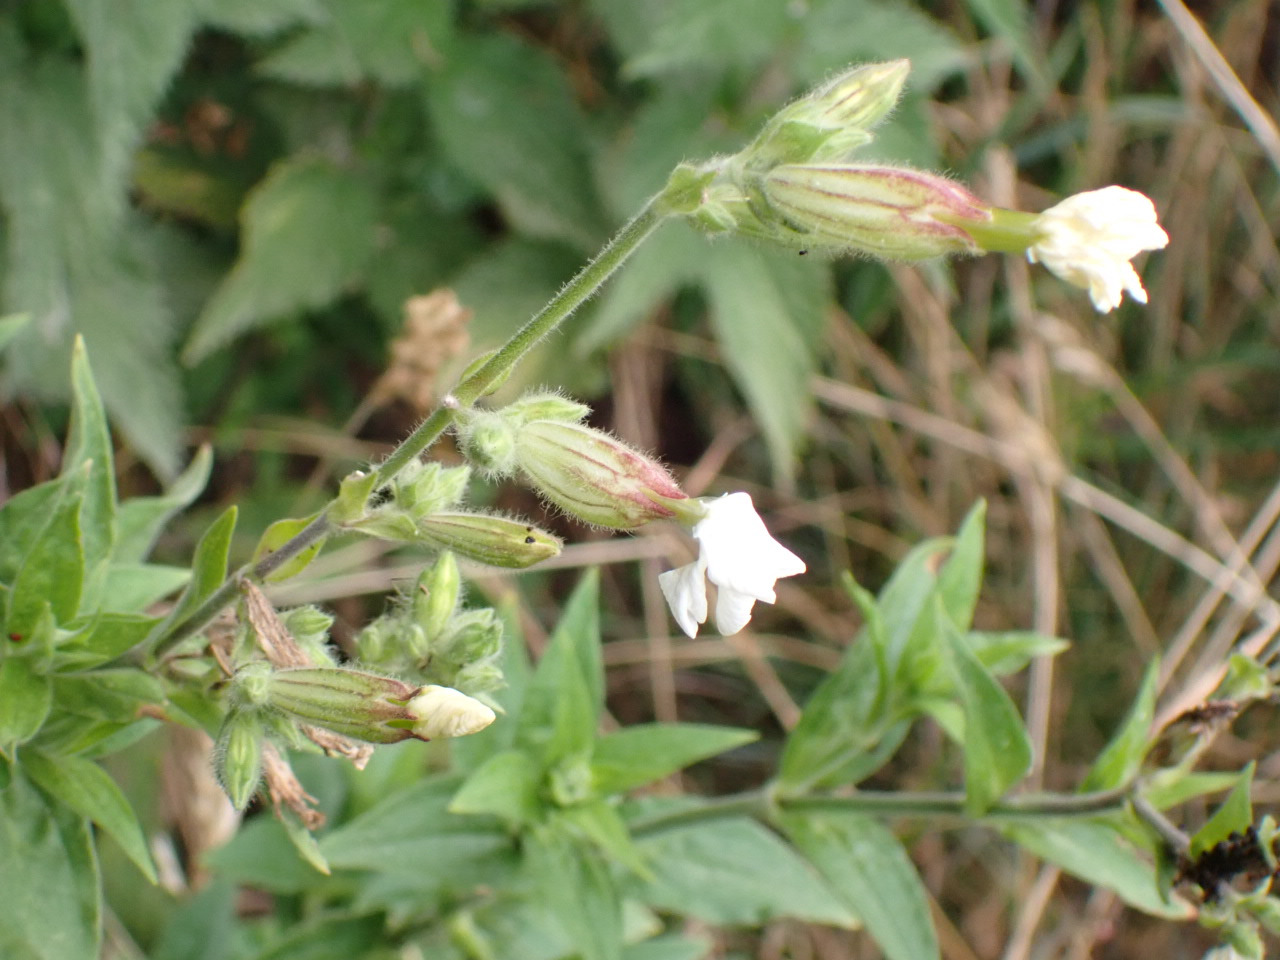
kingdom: Plantae
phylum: Tracheophyta
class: Magnoliopsida
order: Caryophyllales
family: Caryophyllaceae
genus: Silene
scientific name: Silene latifolia
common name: Aftenpragtstjerne
